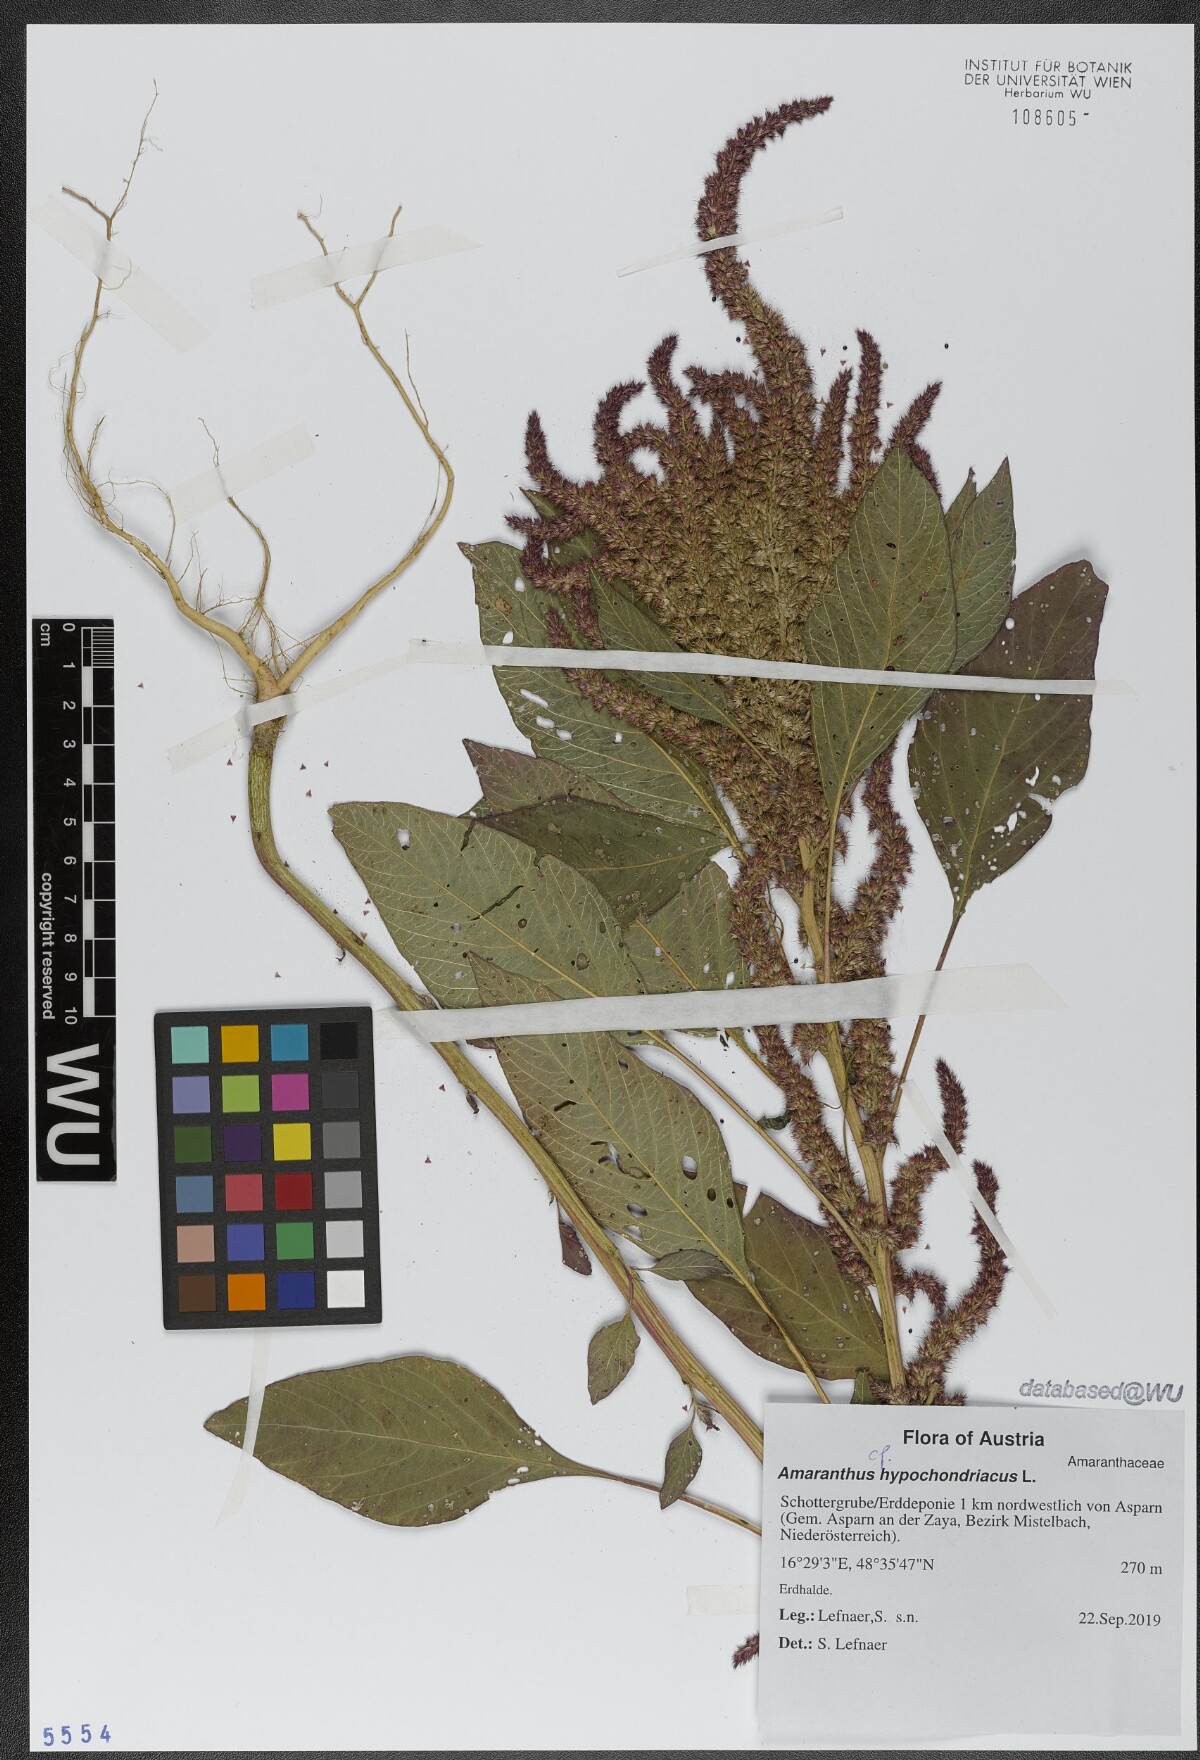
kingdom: Plantae
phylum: Tracheophyta
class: Magnoliopsida
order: Caryophyllales
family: Amaranthaceae
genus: Amaranthus
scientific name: Amaranthus hypochondriacus
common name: Prince's-feather
